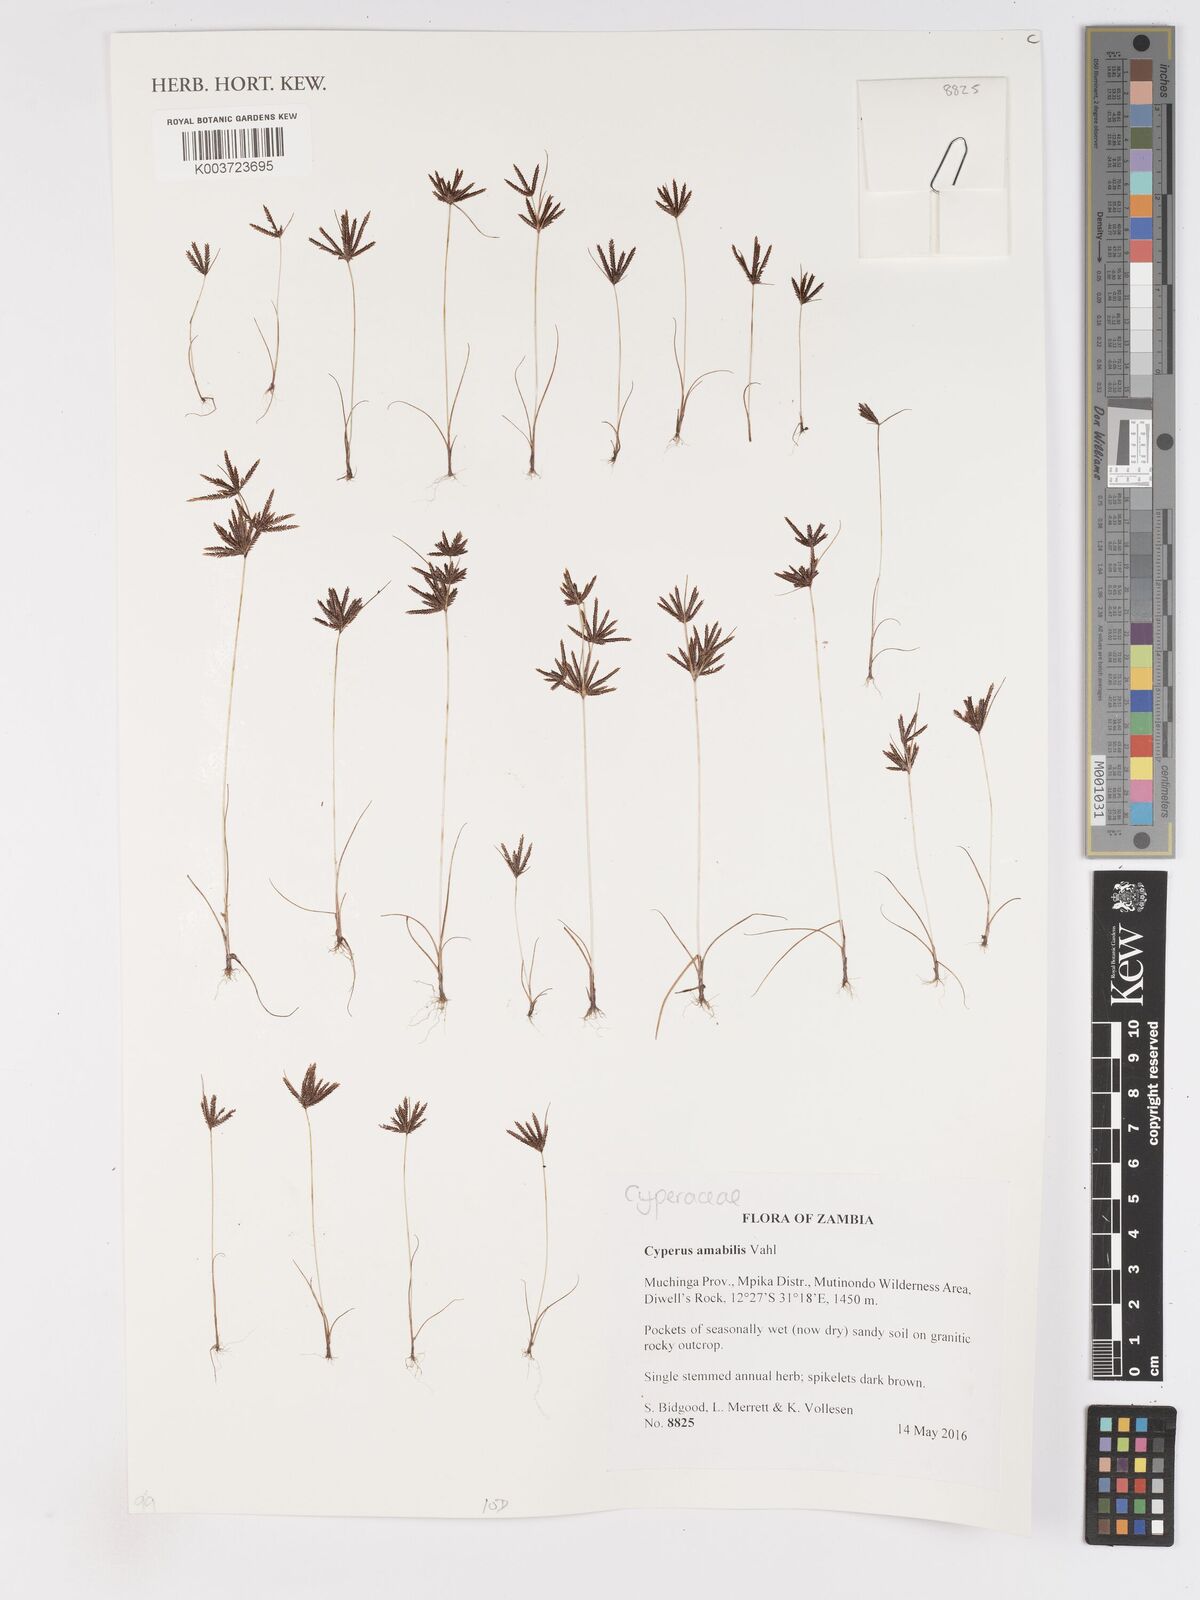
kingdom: Plantae
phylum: Tracheophyta
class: Liliopsida
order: Poales
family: Cyperaceae
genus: Cyperus
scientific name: Cyperus amabilis
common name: Foothill flat sedge
